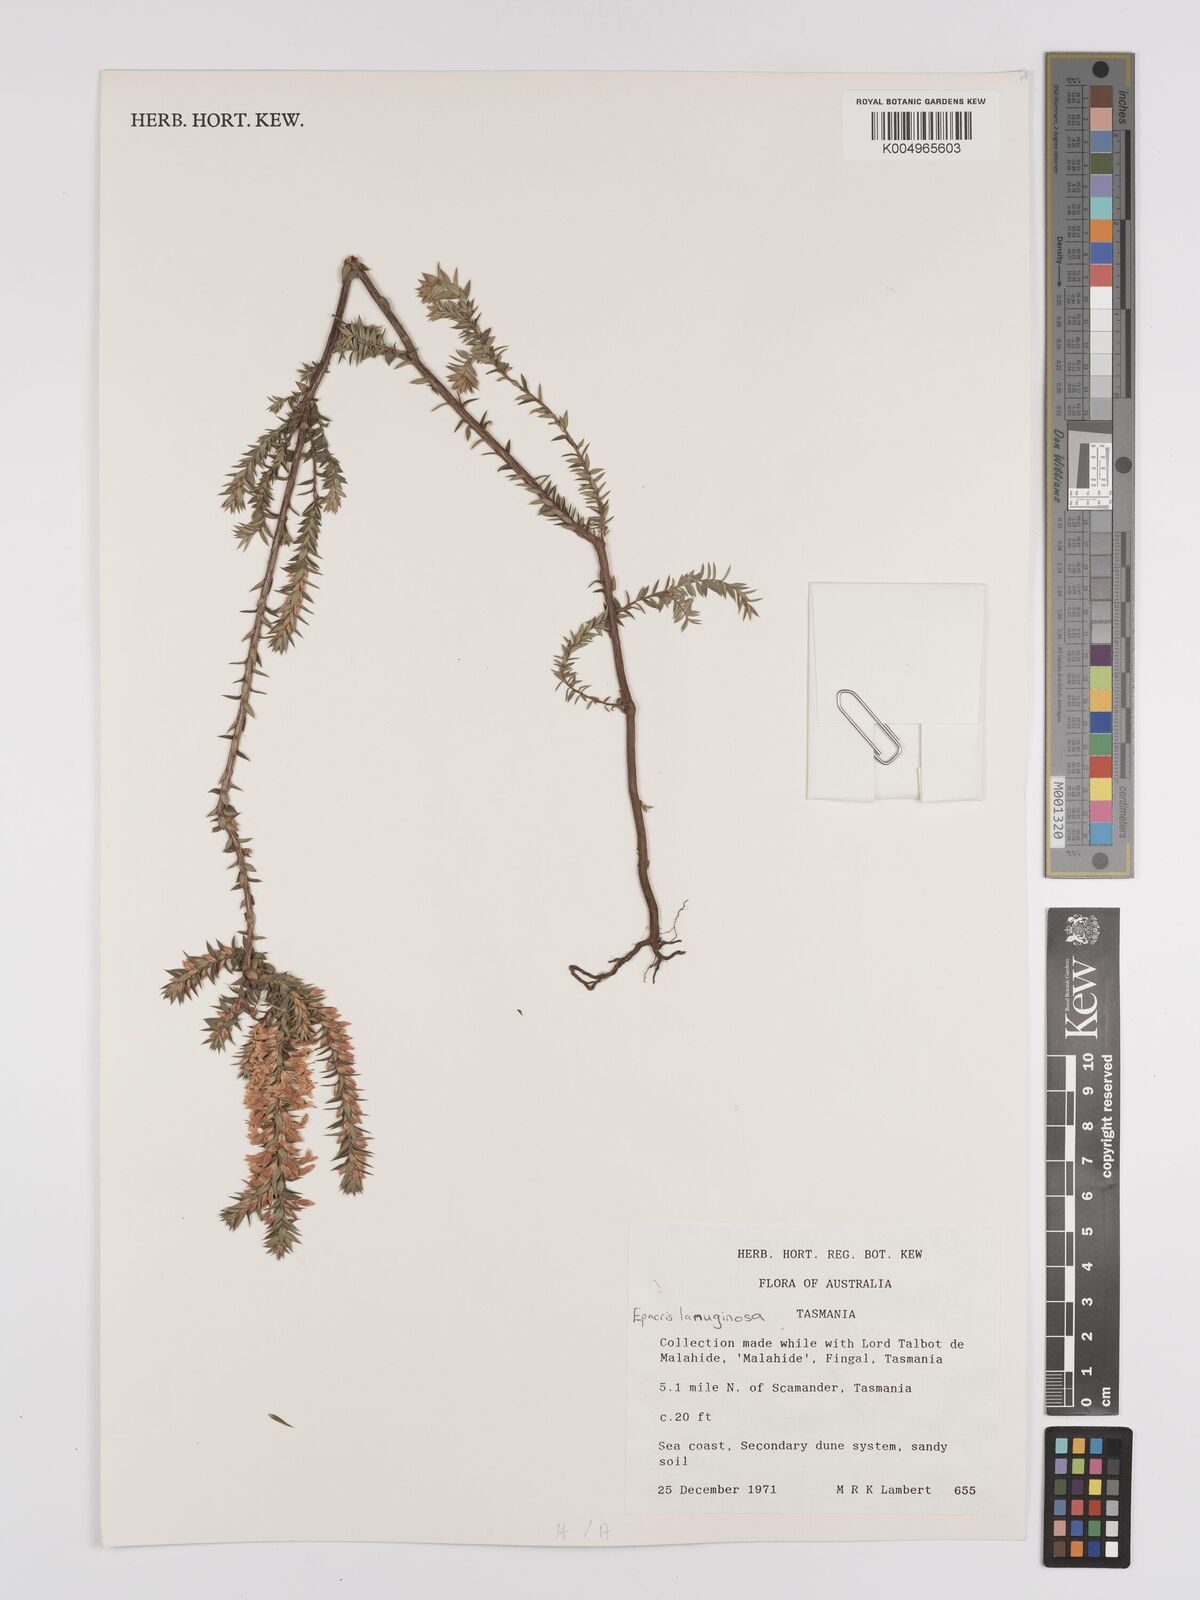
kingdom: Plantae
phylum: Tracheophyta
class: Magnoliopsida
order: Ericales
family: Ericaceae
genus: Epacris
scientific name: Epacris lanuginosa
